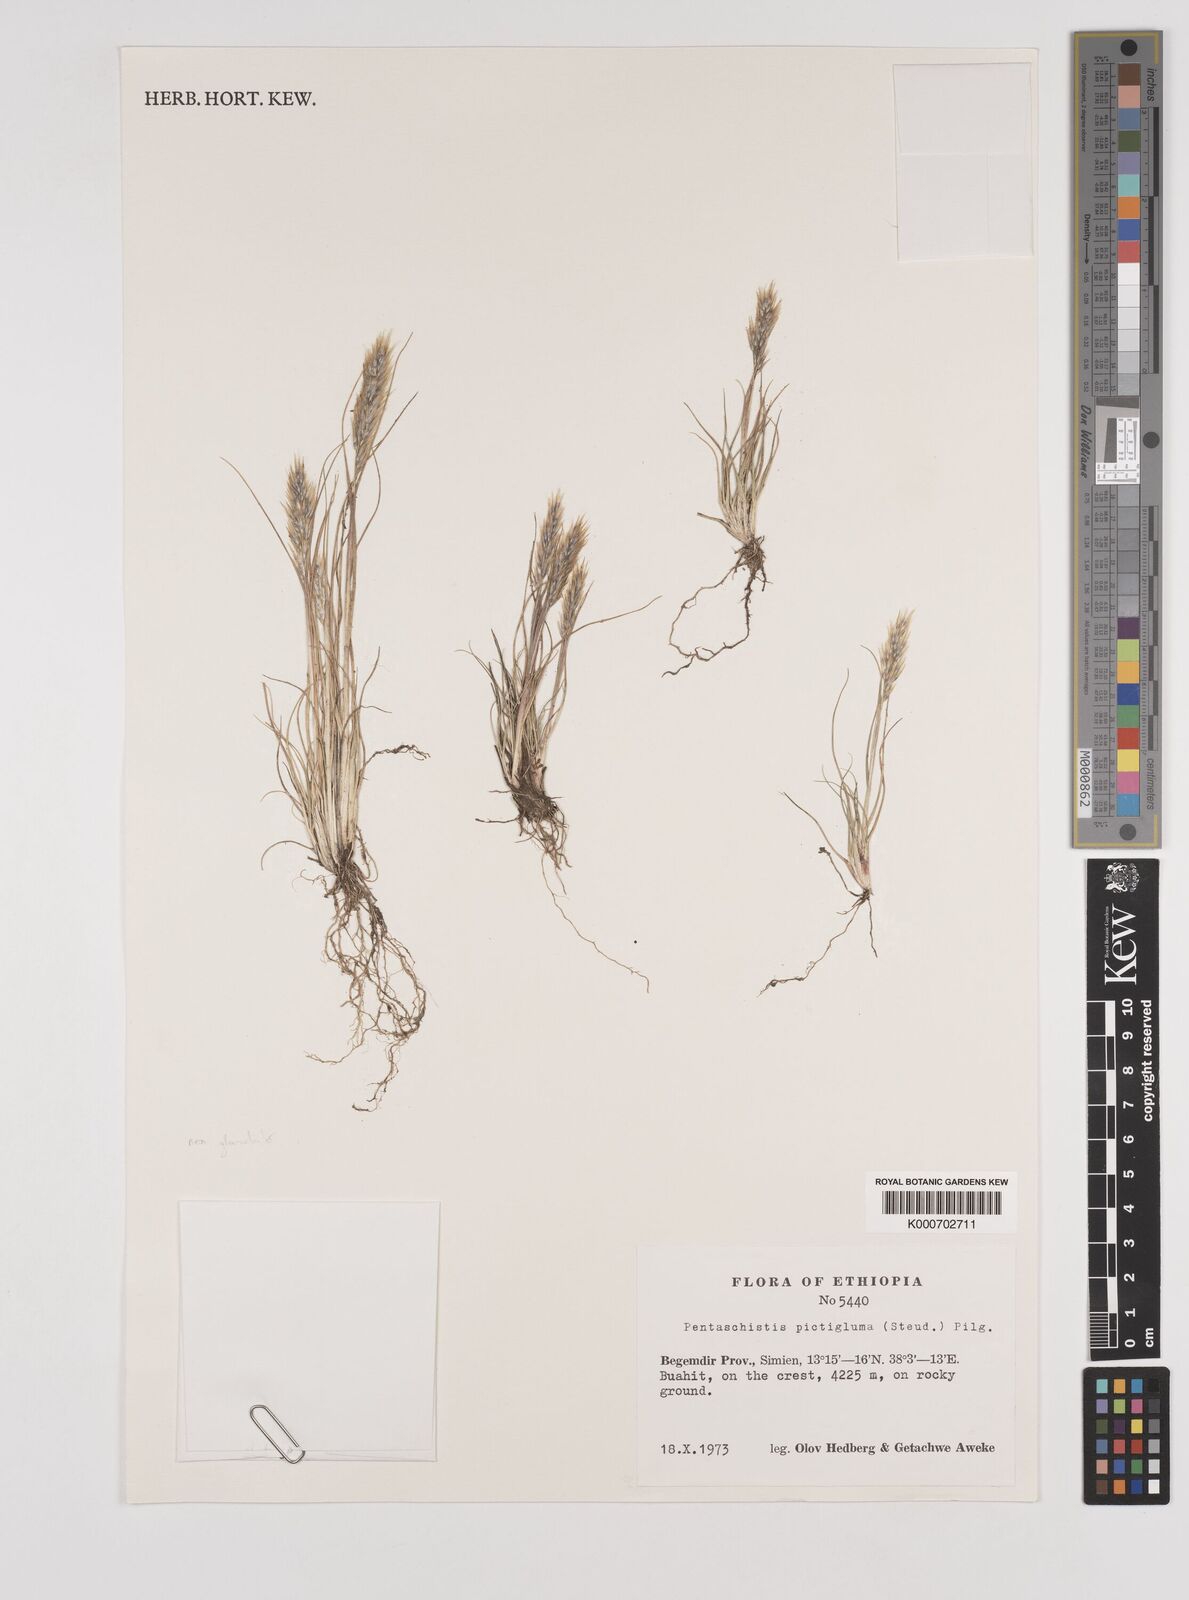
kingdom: Plantae
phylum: Tracheophyta
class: Liliopsida
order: Poales
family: Poaceae
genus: Pentameris
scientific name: Pentameris pictigluma
